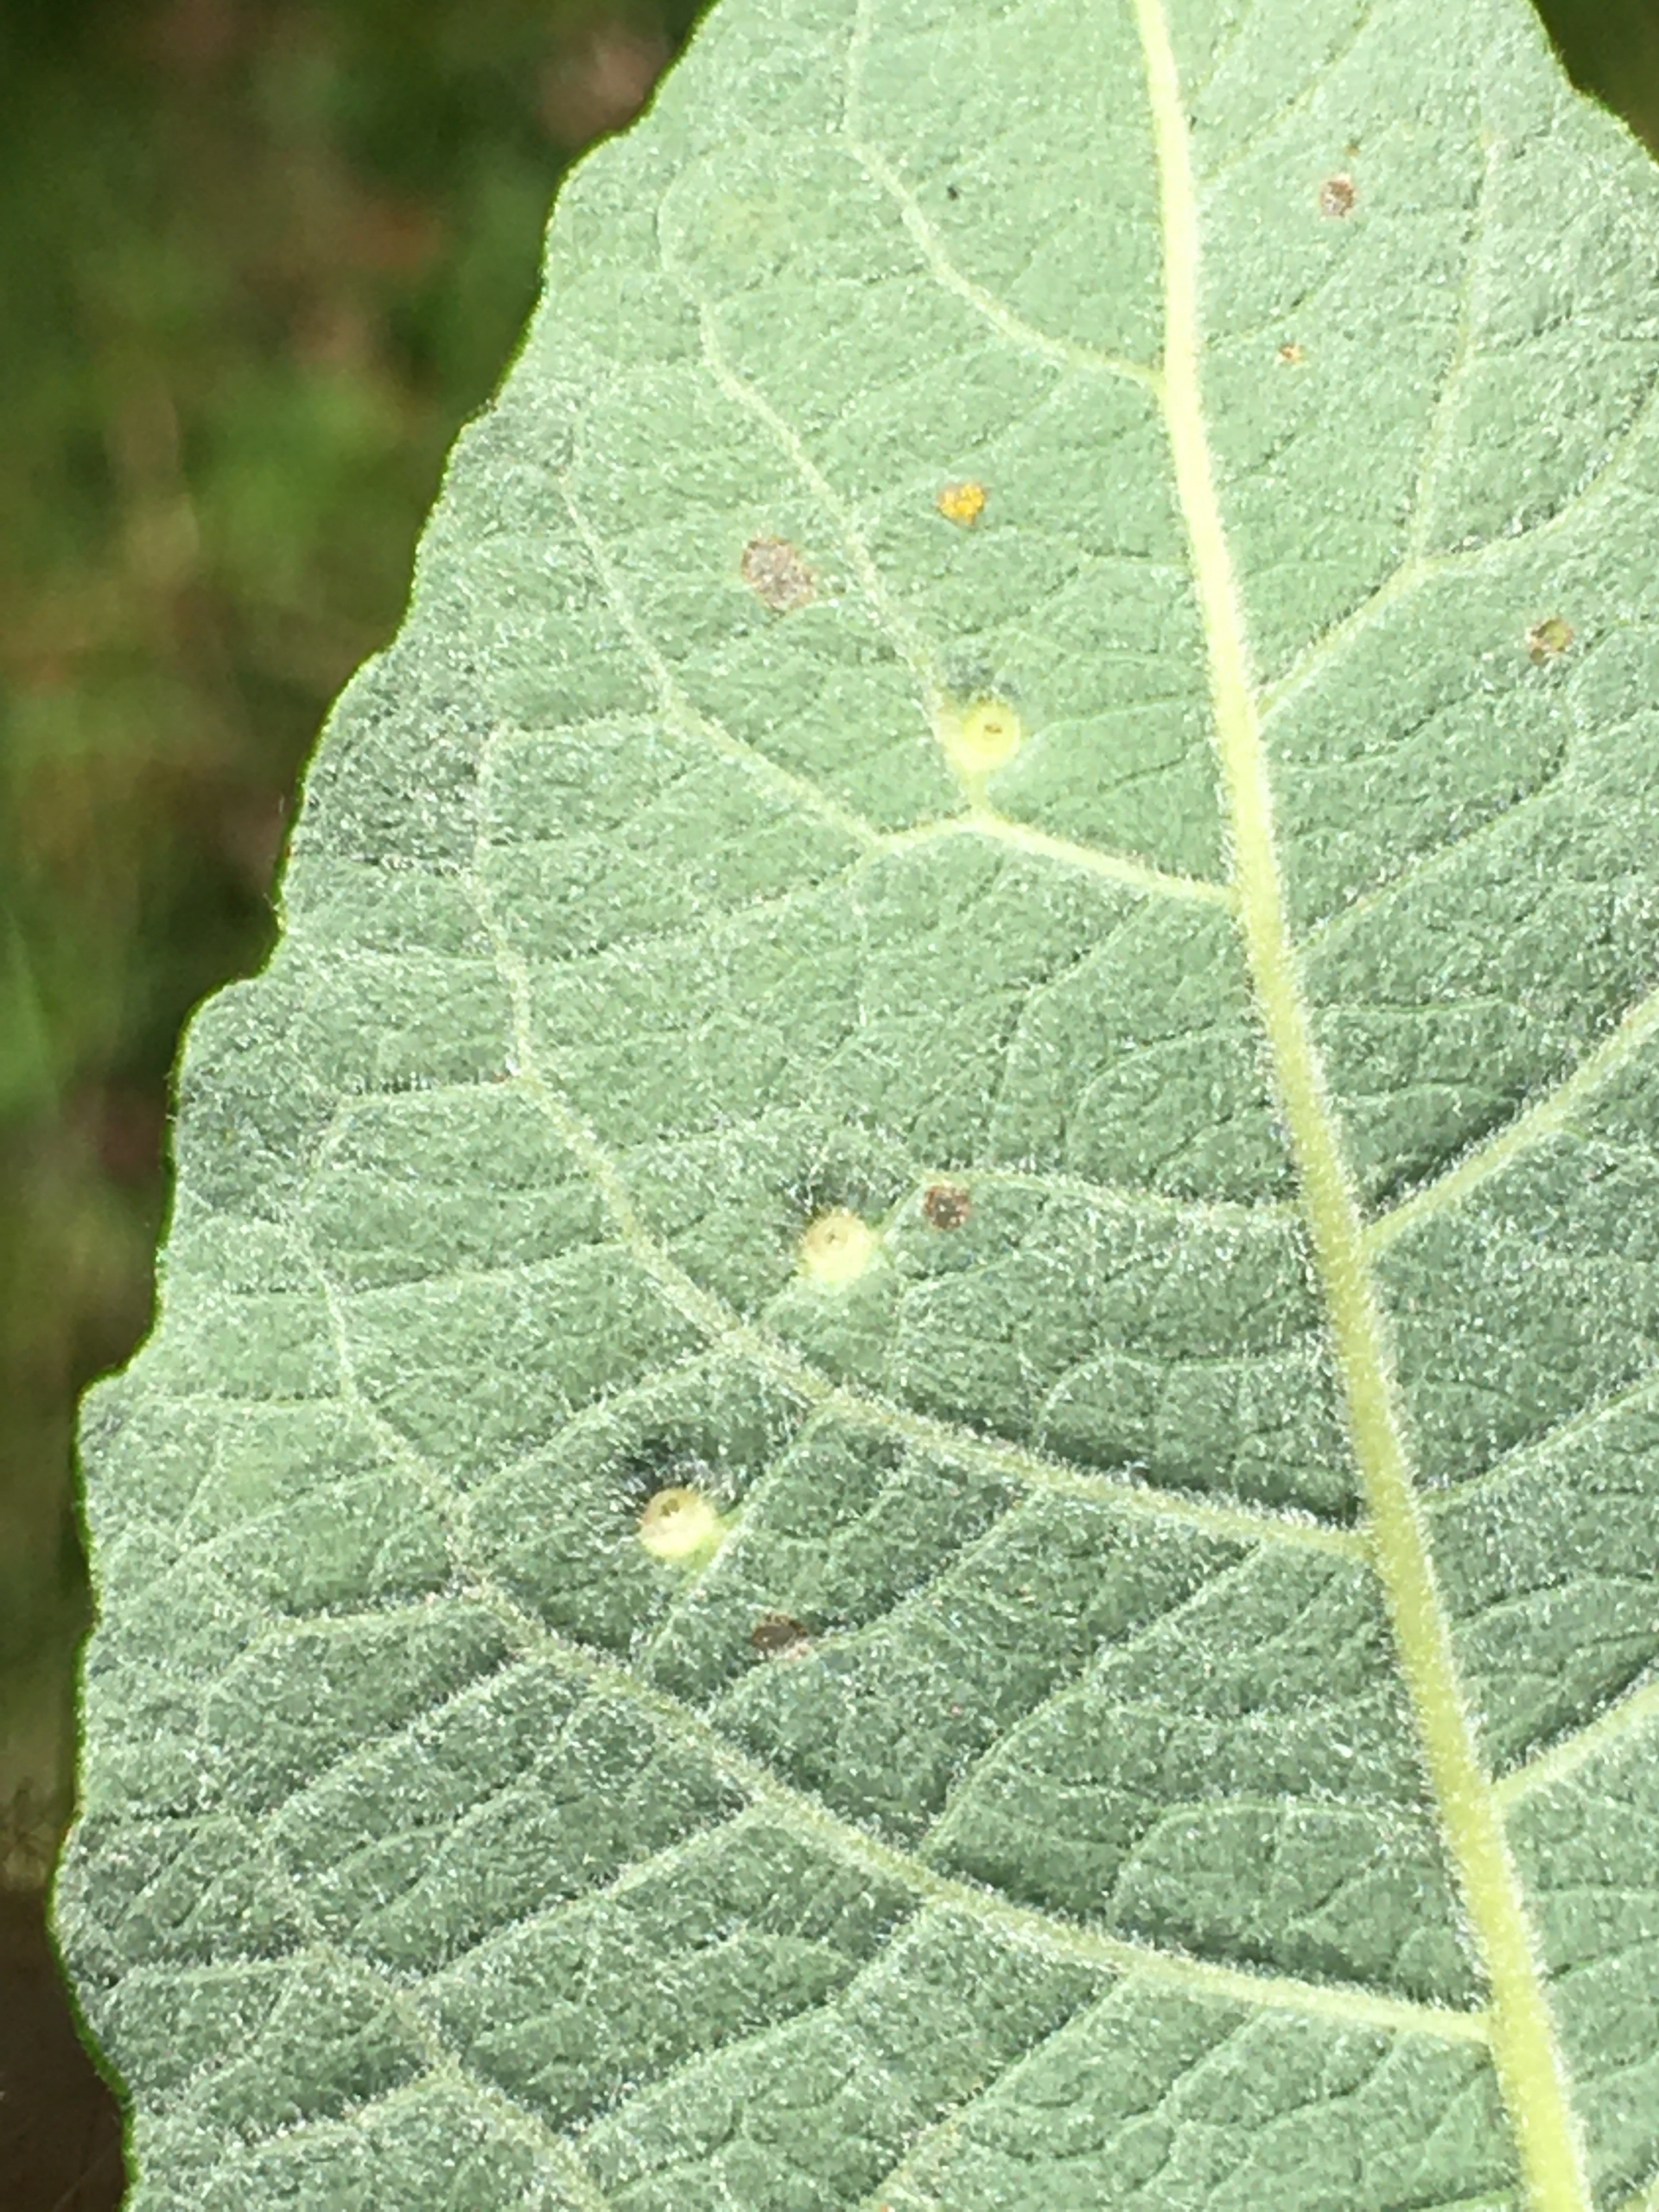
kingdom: Animalia
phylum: Arthropoda
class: Insecta
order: Diptera
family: Cecidomyiidae
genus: Iteomyia
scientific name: Iteomyia capreae
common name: Lille seljebladgalmyg
